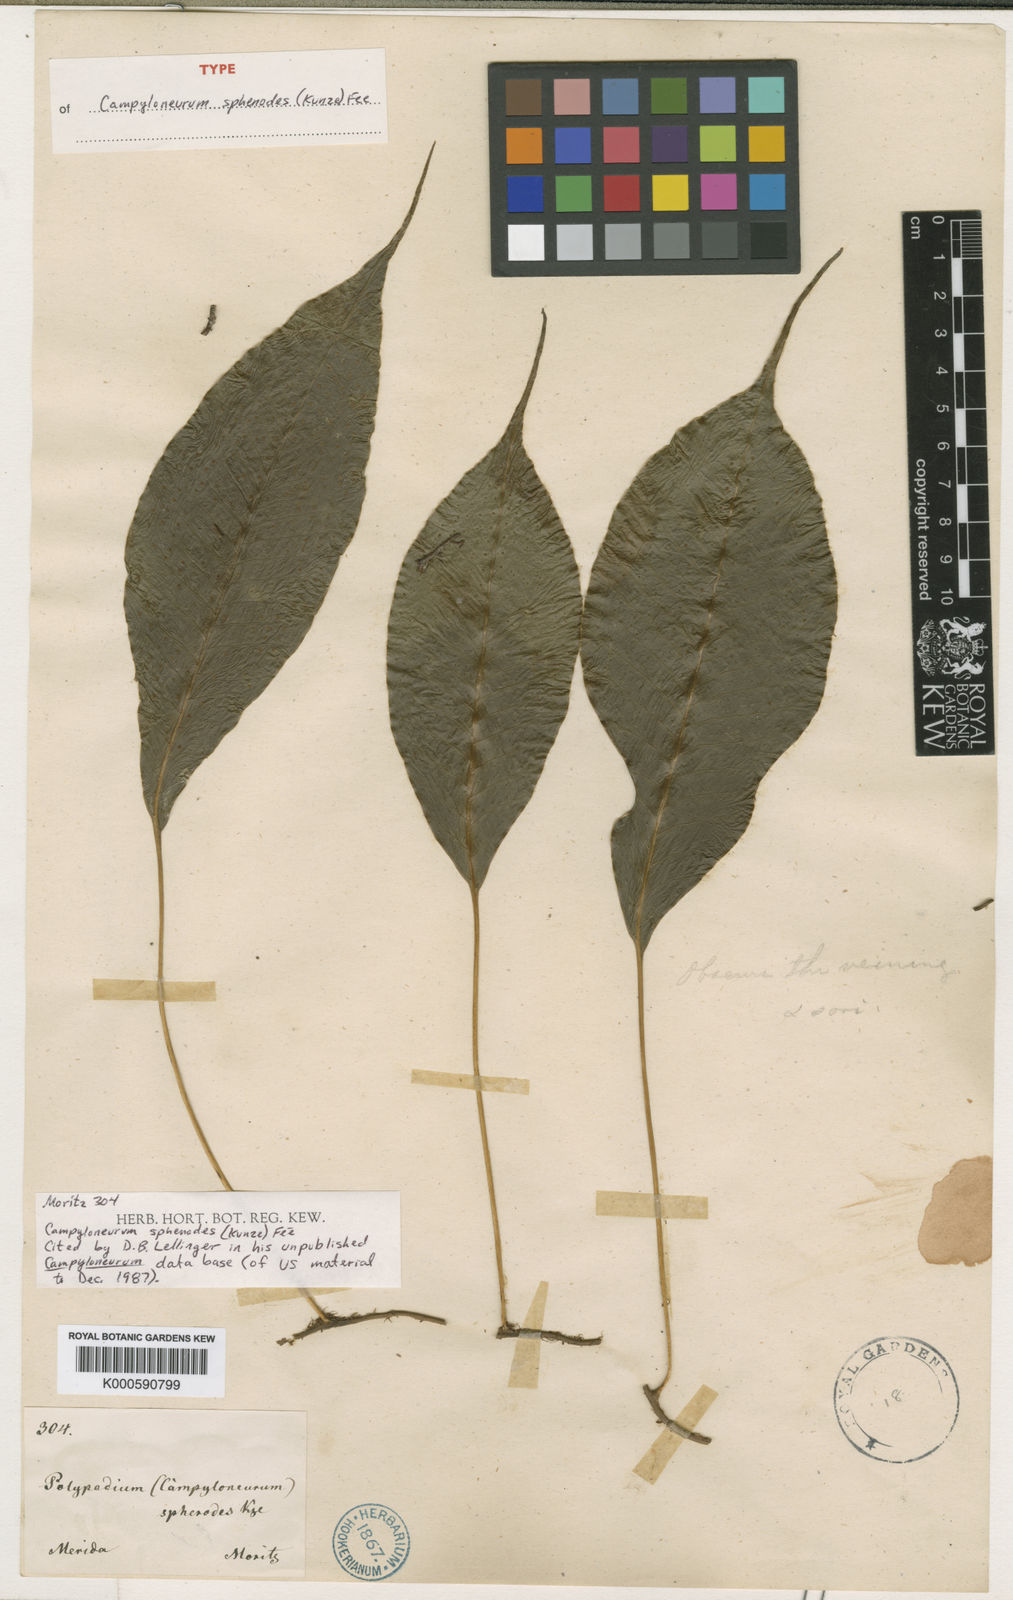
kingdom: Plantae
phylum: Tracheophyta
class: Polypodiopsida
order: Polypodiales
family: Polypodiaceae
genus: Campyloneurum
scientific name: Campyloneurum
